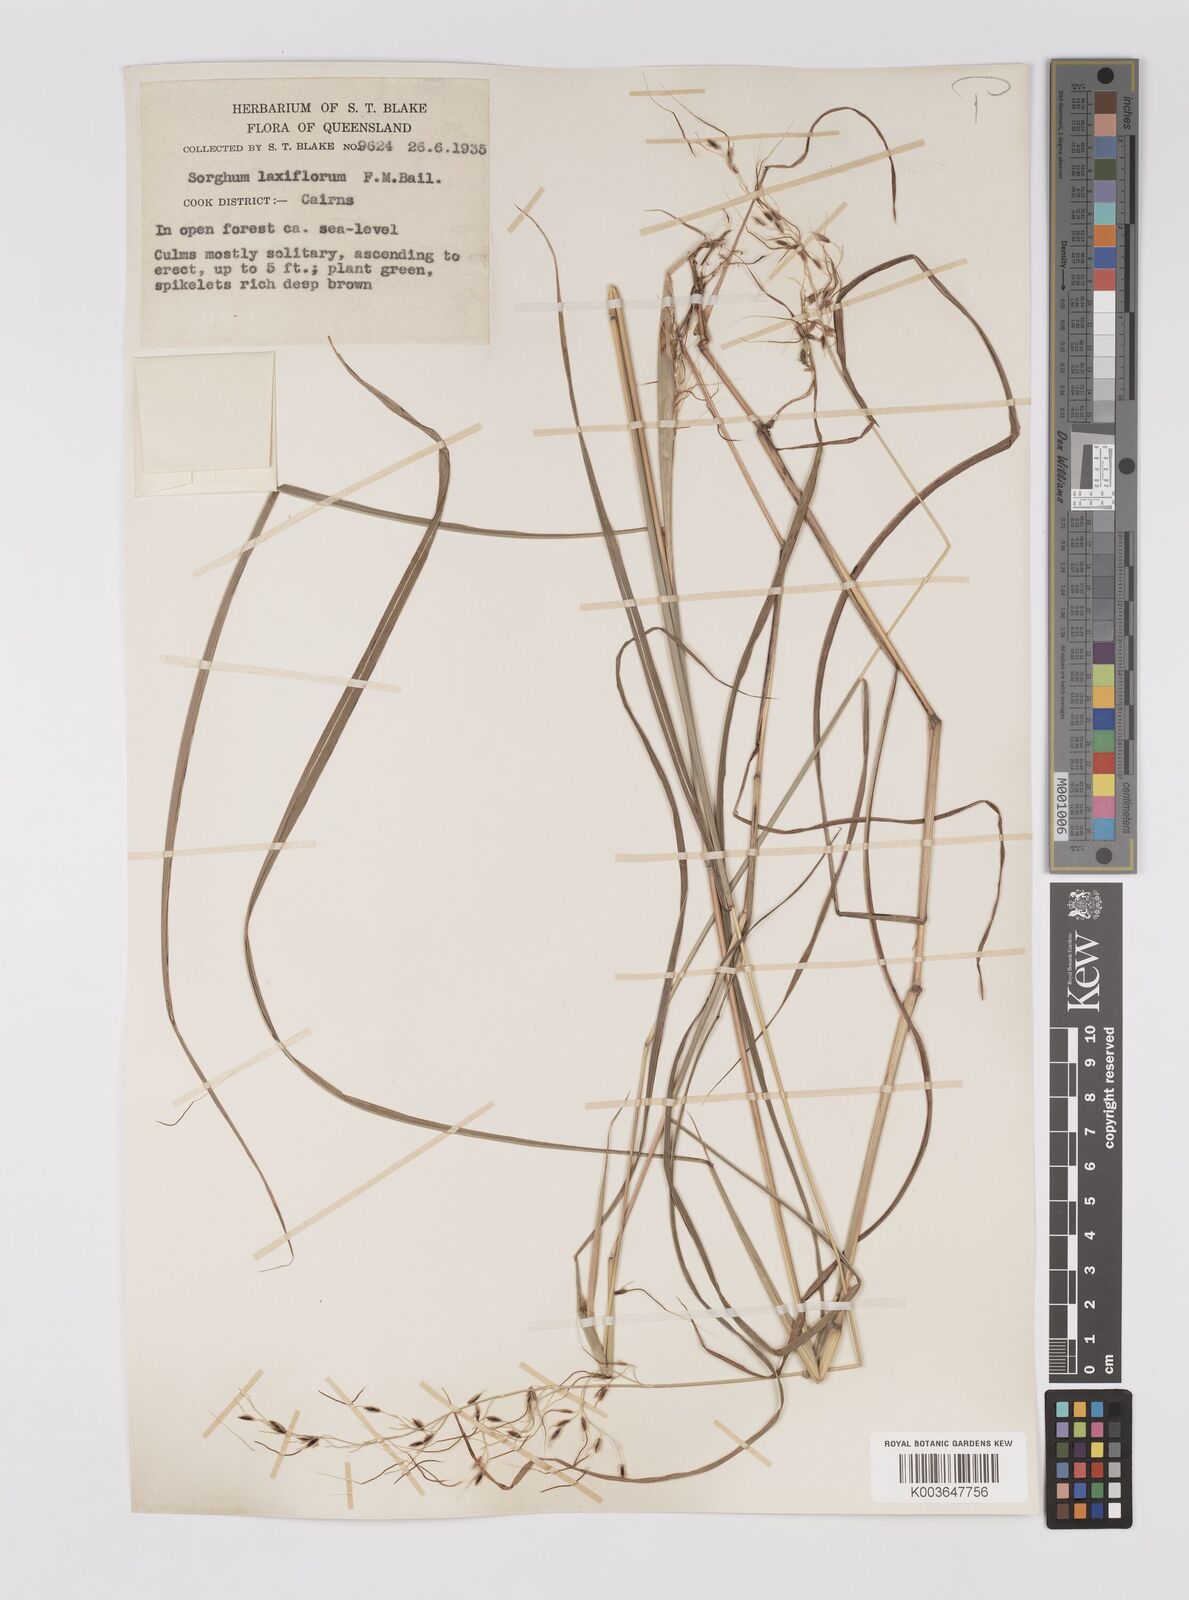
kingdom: Plantae
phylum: Tracheophyta
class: Liliopsida
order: Poales
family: Poaceae
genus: Sorghum
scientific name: Sorghum laxiflorum
